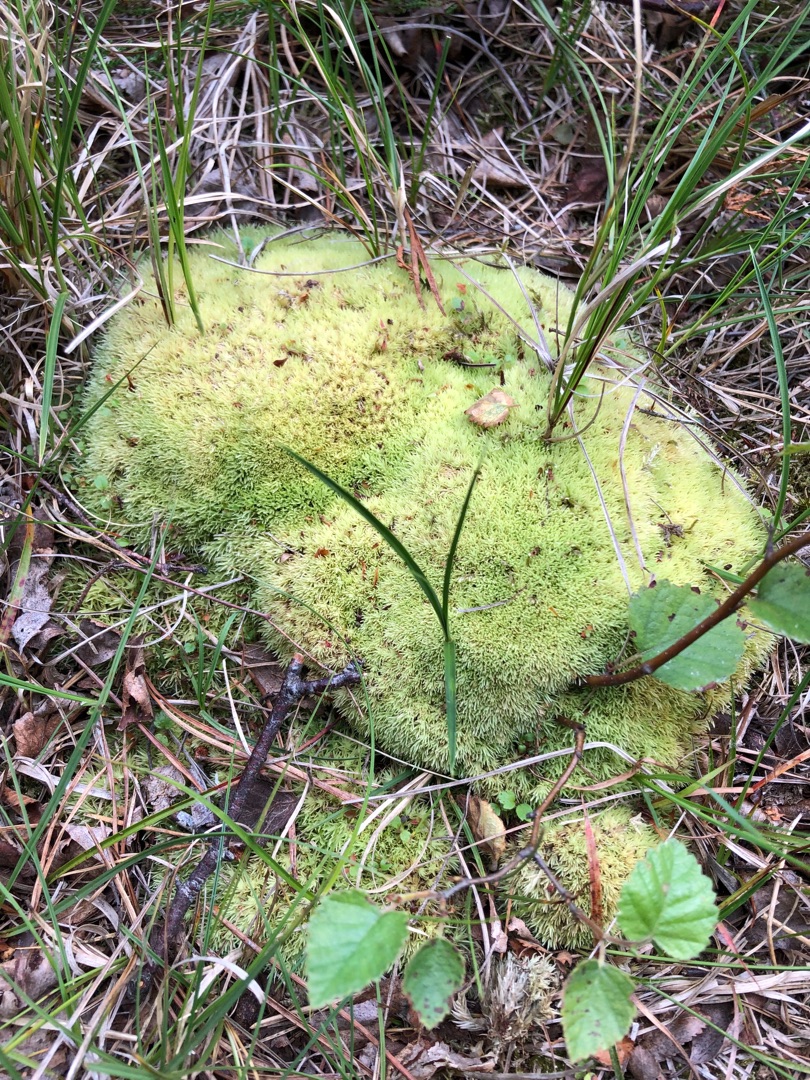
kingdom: Plantae
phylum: Bryophyta
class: Bryopsida
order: Dicranales
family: Leucobryaceae
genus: Leucobryum
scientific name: Leucobryum glaucum
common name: Almindelig hvidmos
